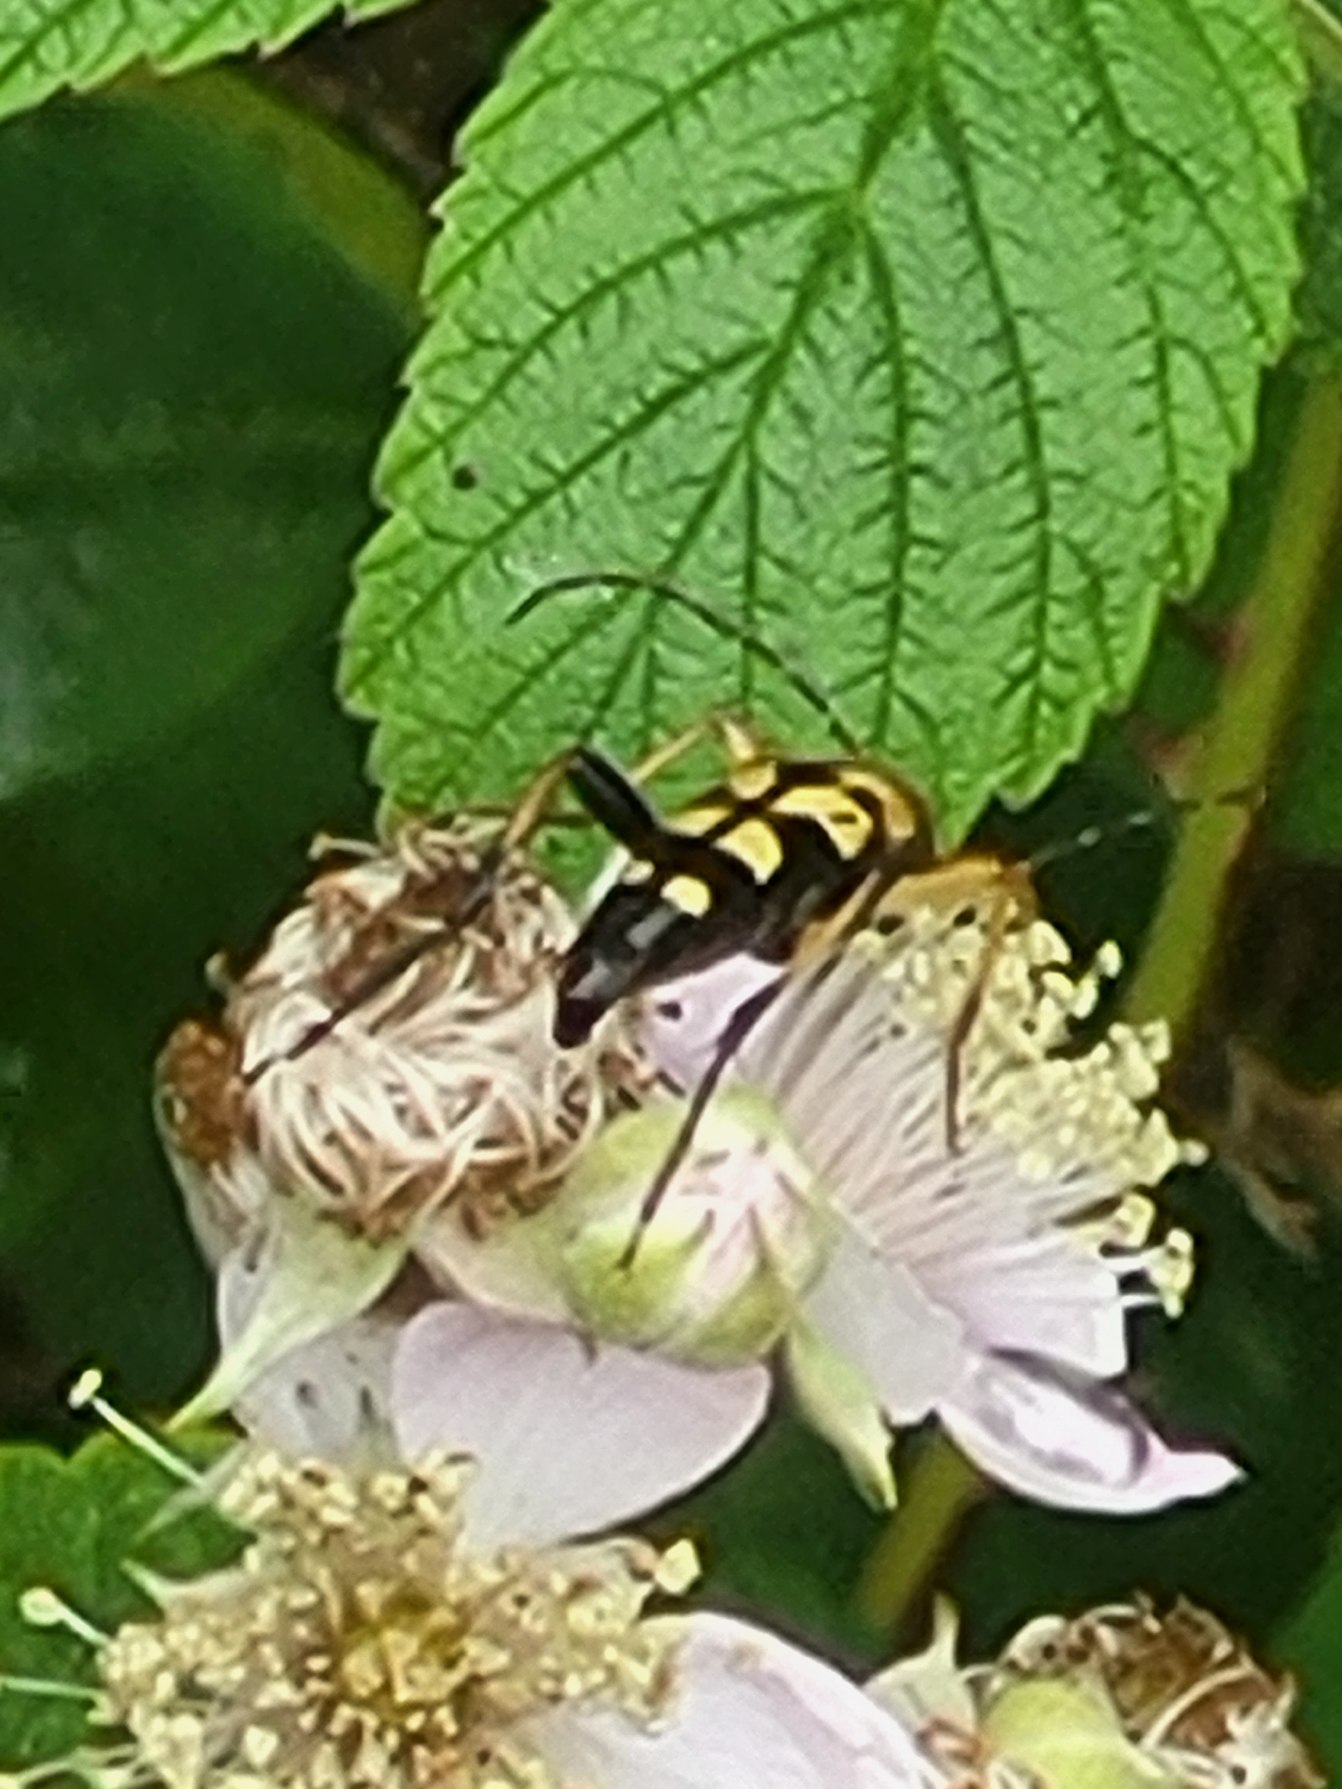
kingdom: Animalia
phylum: Arthropoda
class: Insecta
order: Coleoptera
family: Cerambycidae
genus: Rutpela
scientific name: Rutpela maculata
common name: Sydlig blomsterbuk
